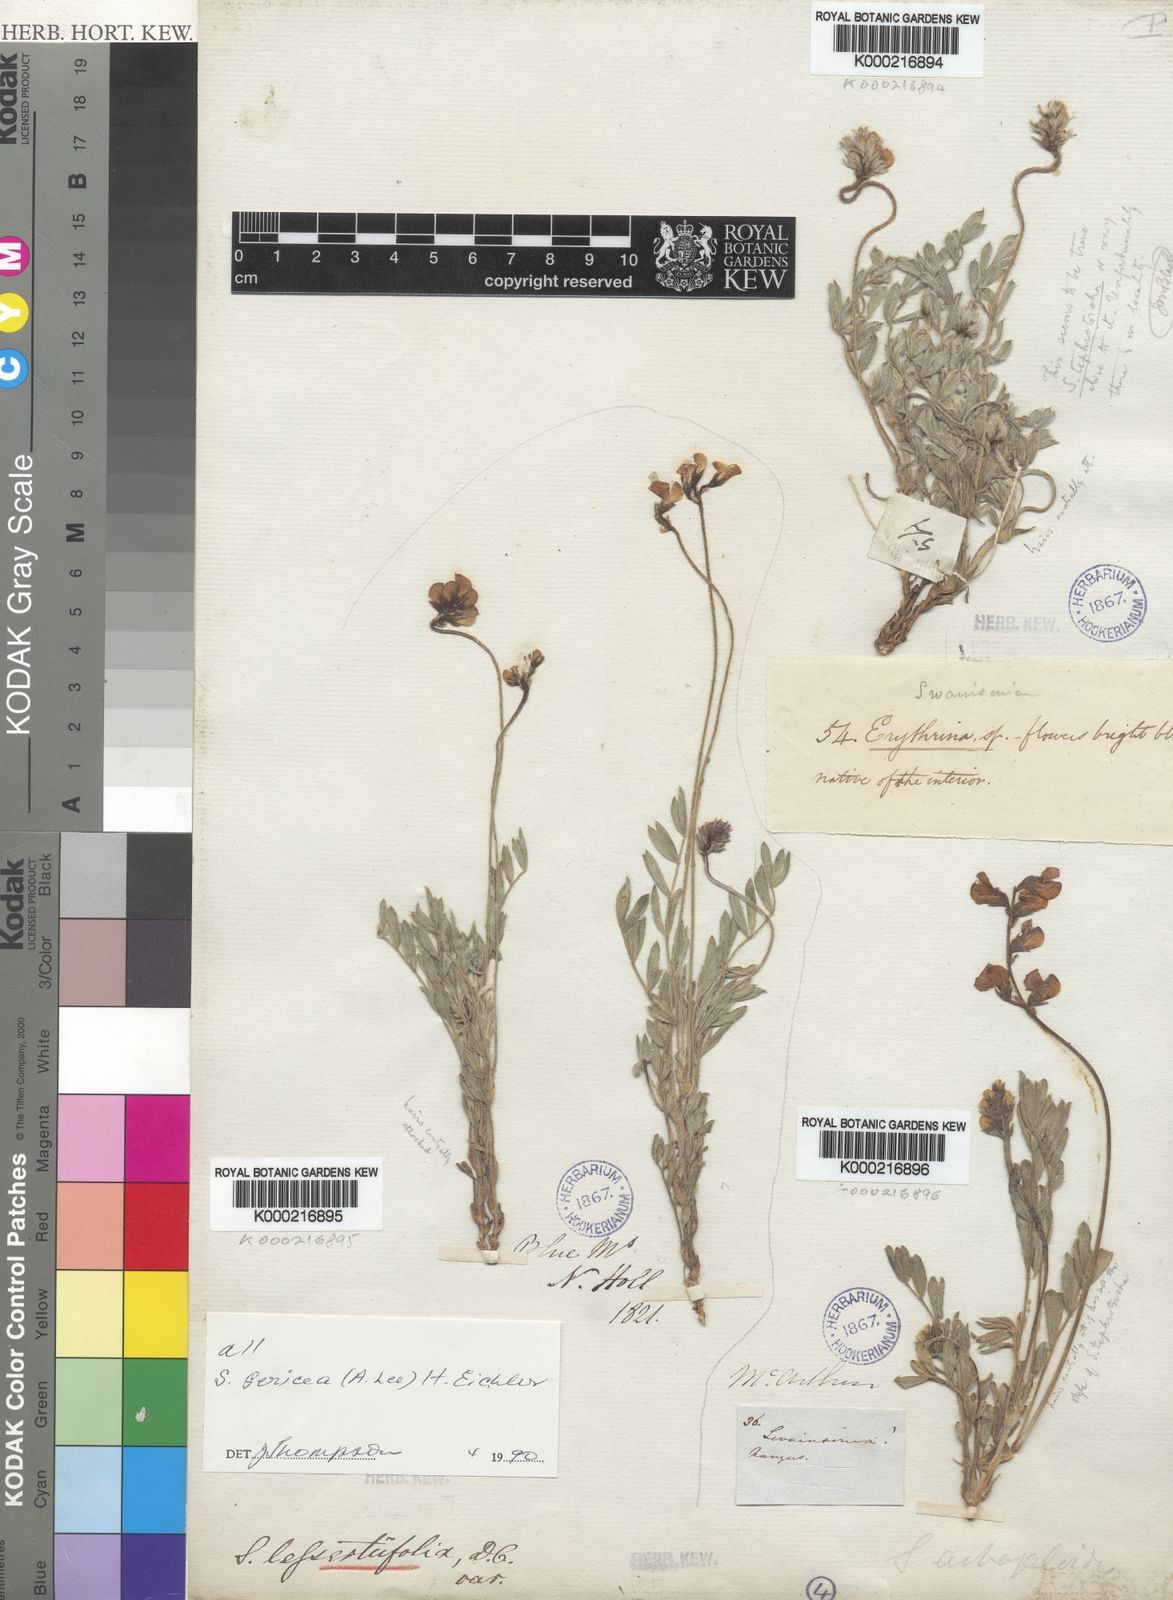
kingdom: Plantae
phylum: Tracheophyta
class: Magnoliopsida
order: Fabales
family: Fabaceae
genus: Swainsona
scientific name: Swainsona sericea
